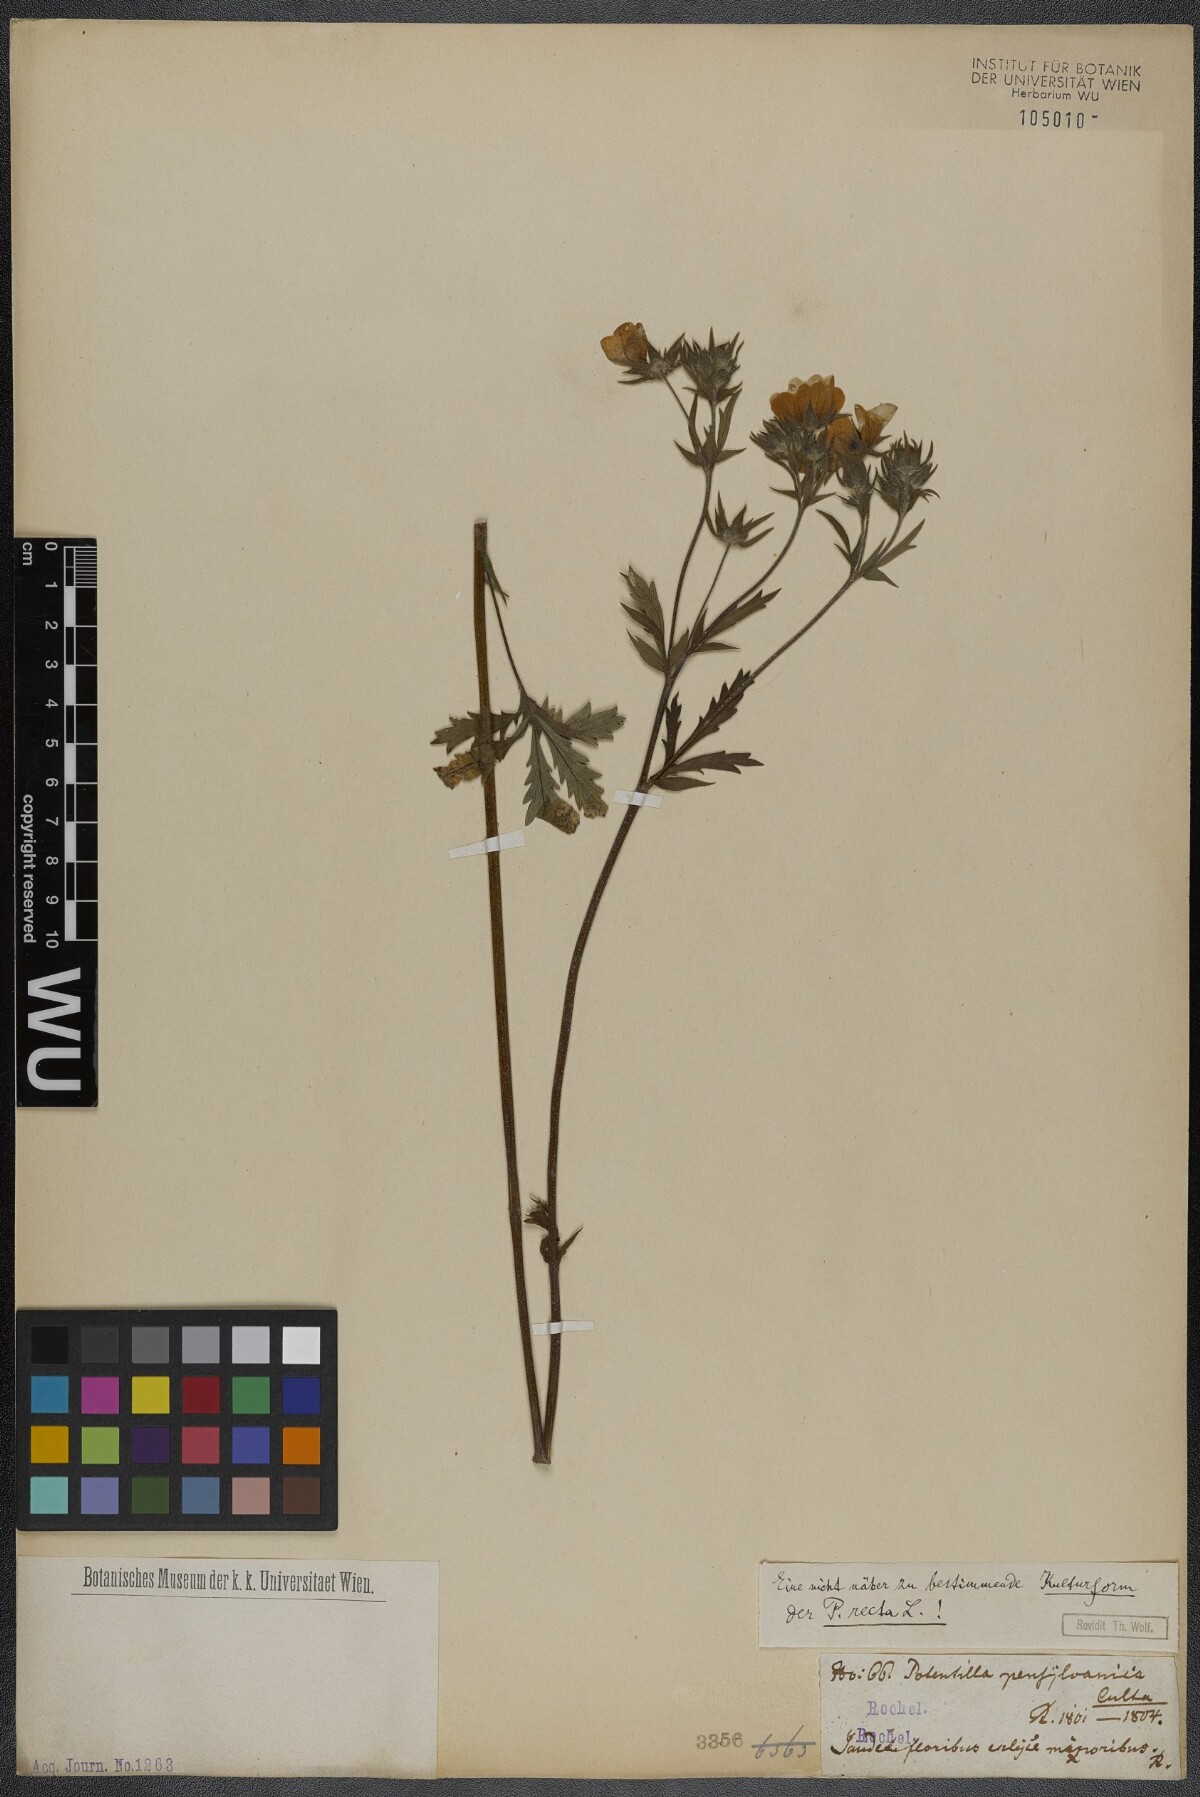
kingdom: Plantae
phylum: Tracheophyta
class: Magnoliopsida
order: Rosales
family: Rosaceae
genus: Potentilla
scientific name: Potentilla recta
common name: Sulphur cinquefoil
